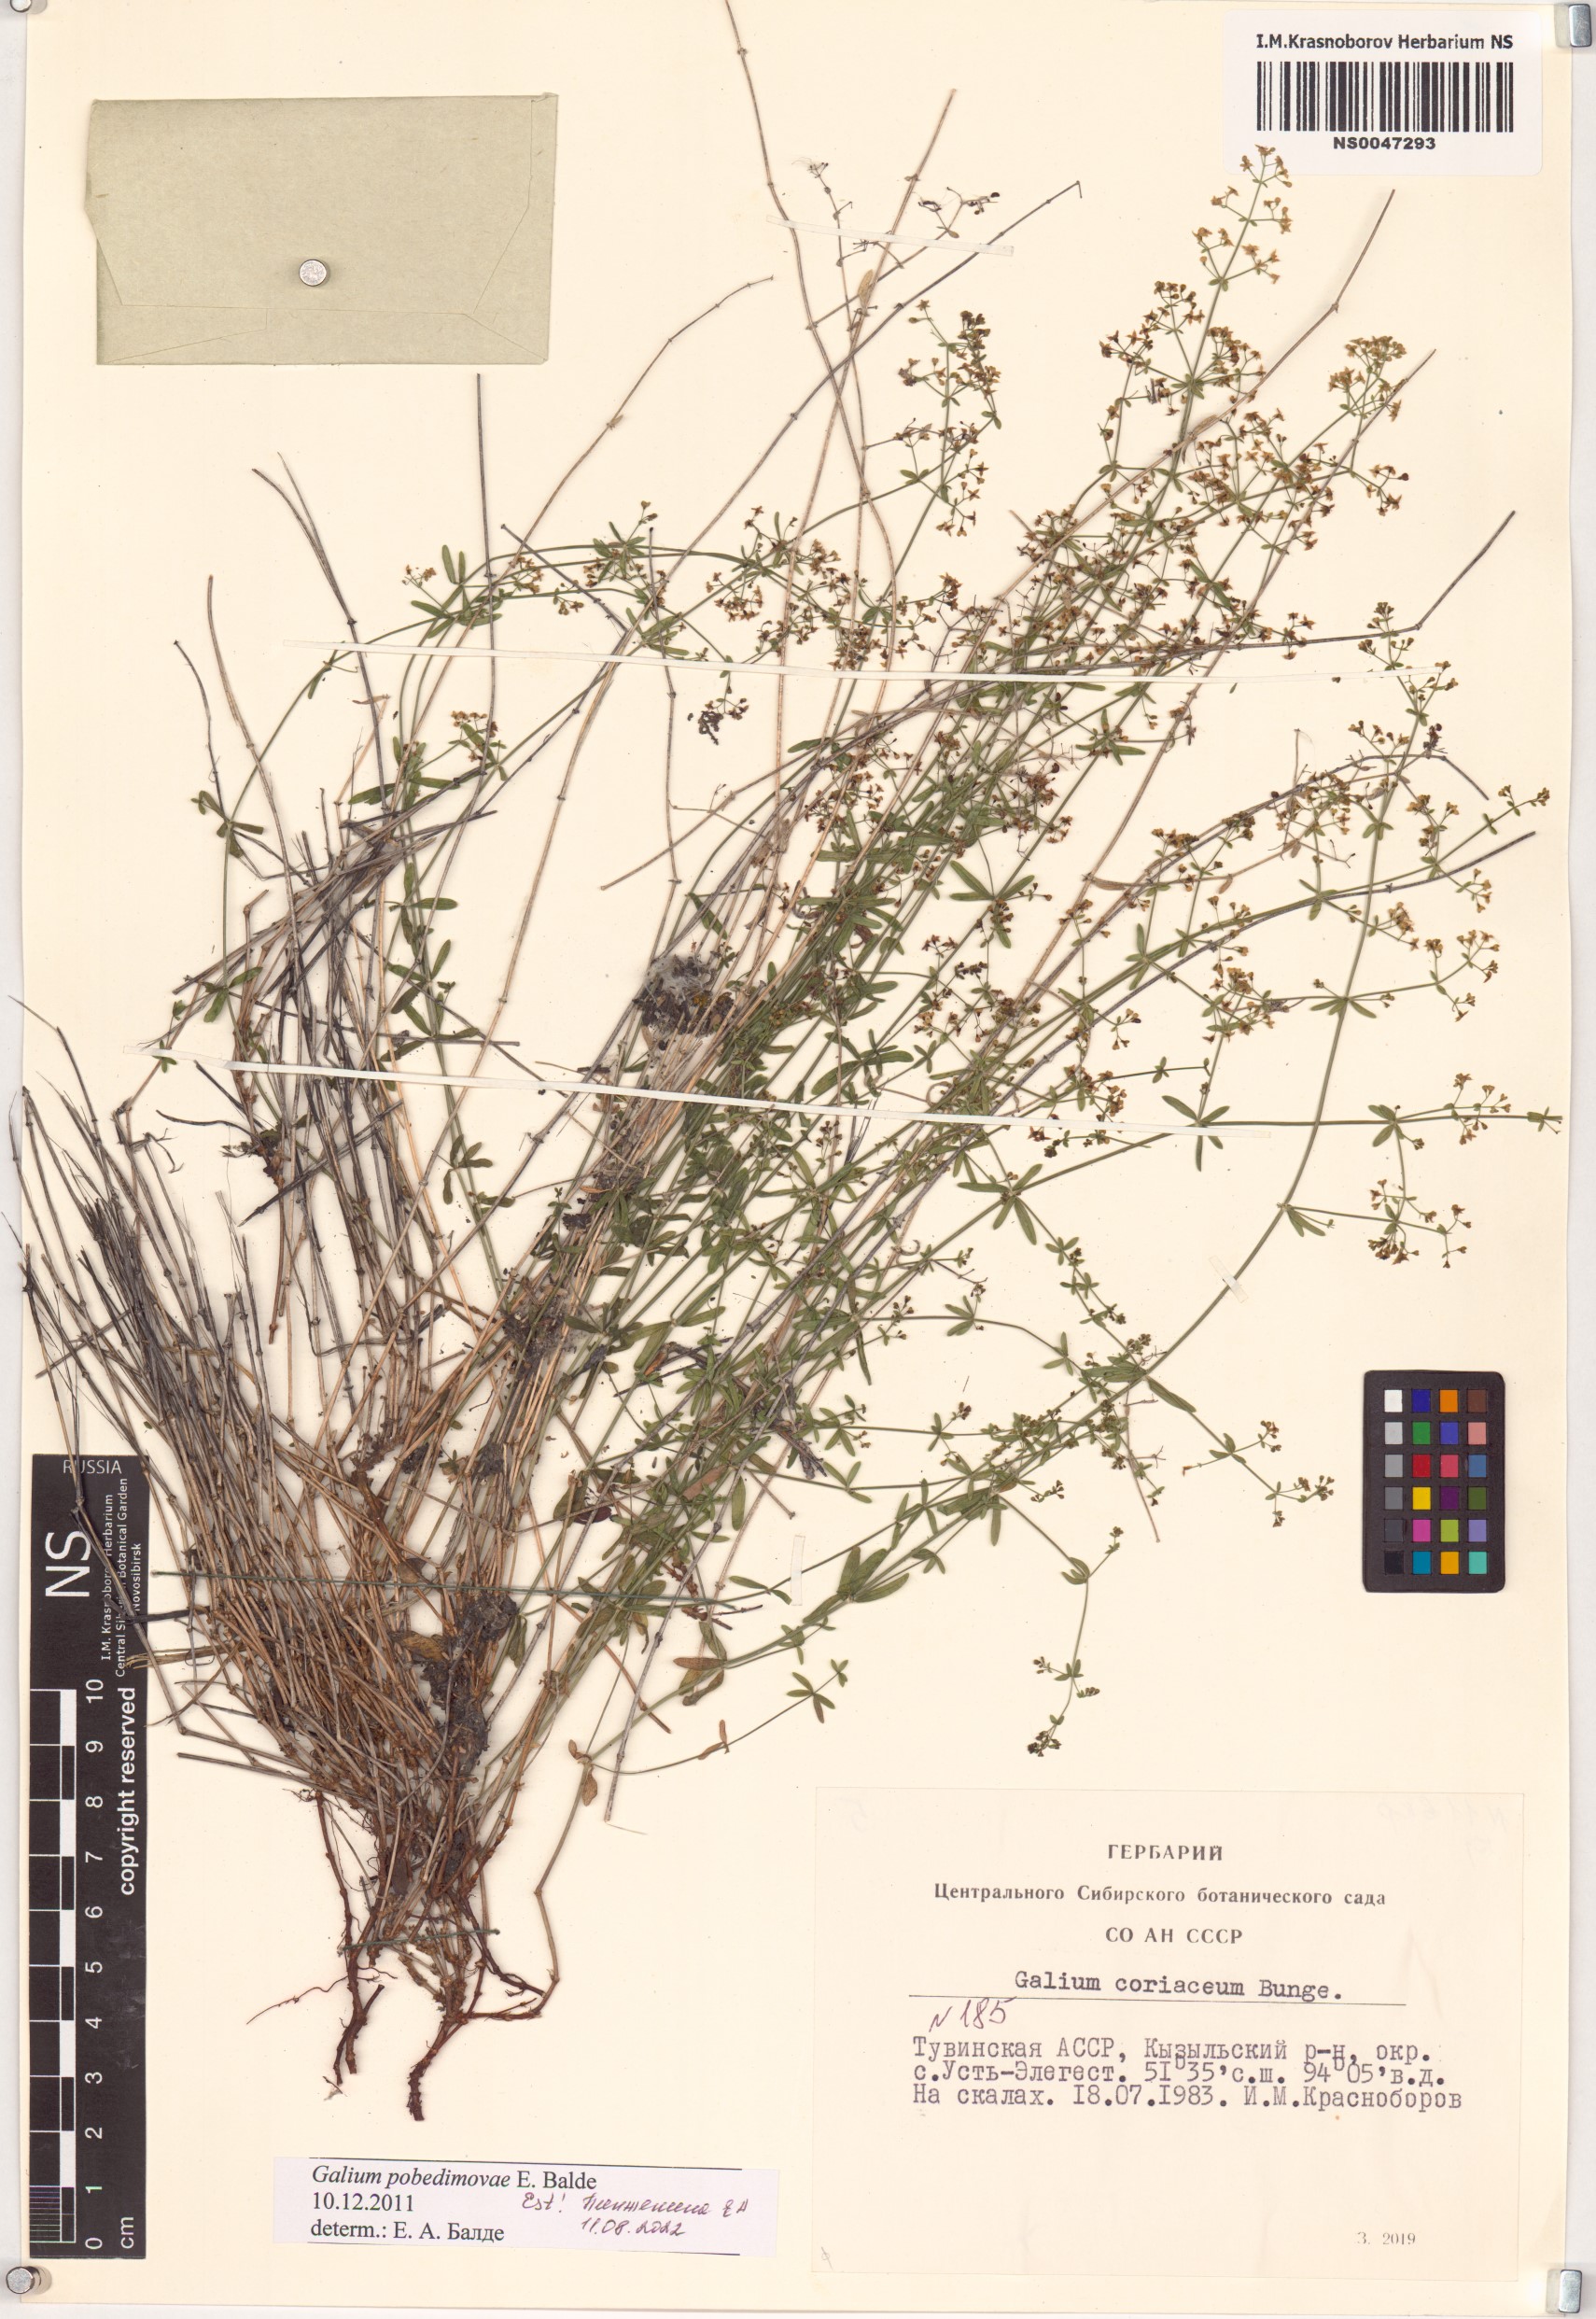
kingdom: Plantae
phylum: Tracheophyta
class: Magnoliopsida
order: Gentianales
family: Rubiaceae
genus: Galium
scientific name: Galium pobedimovae
